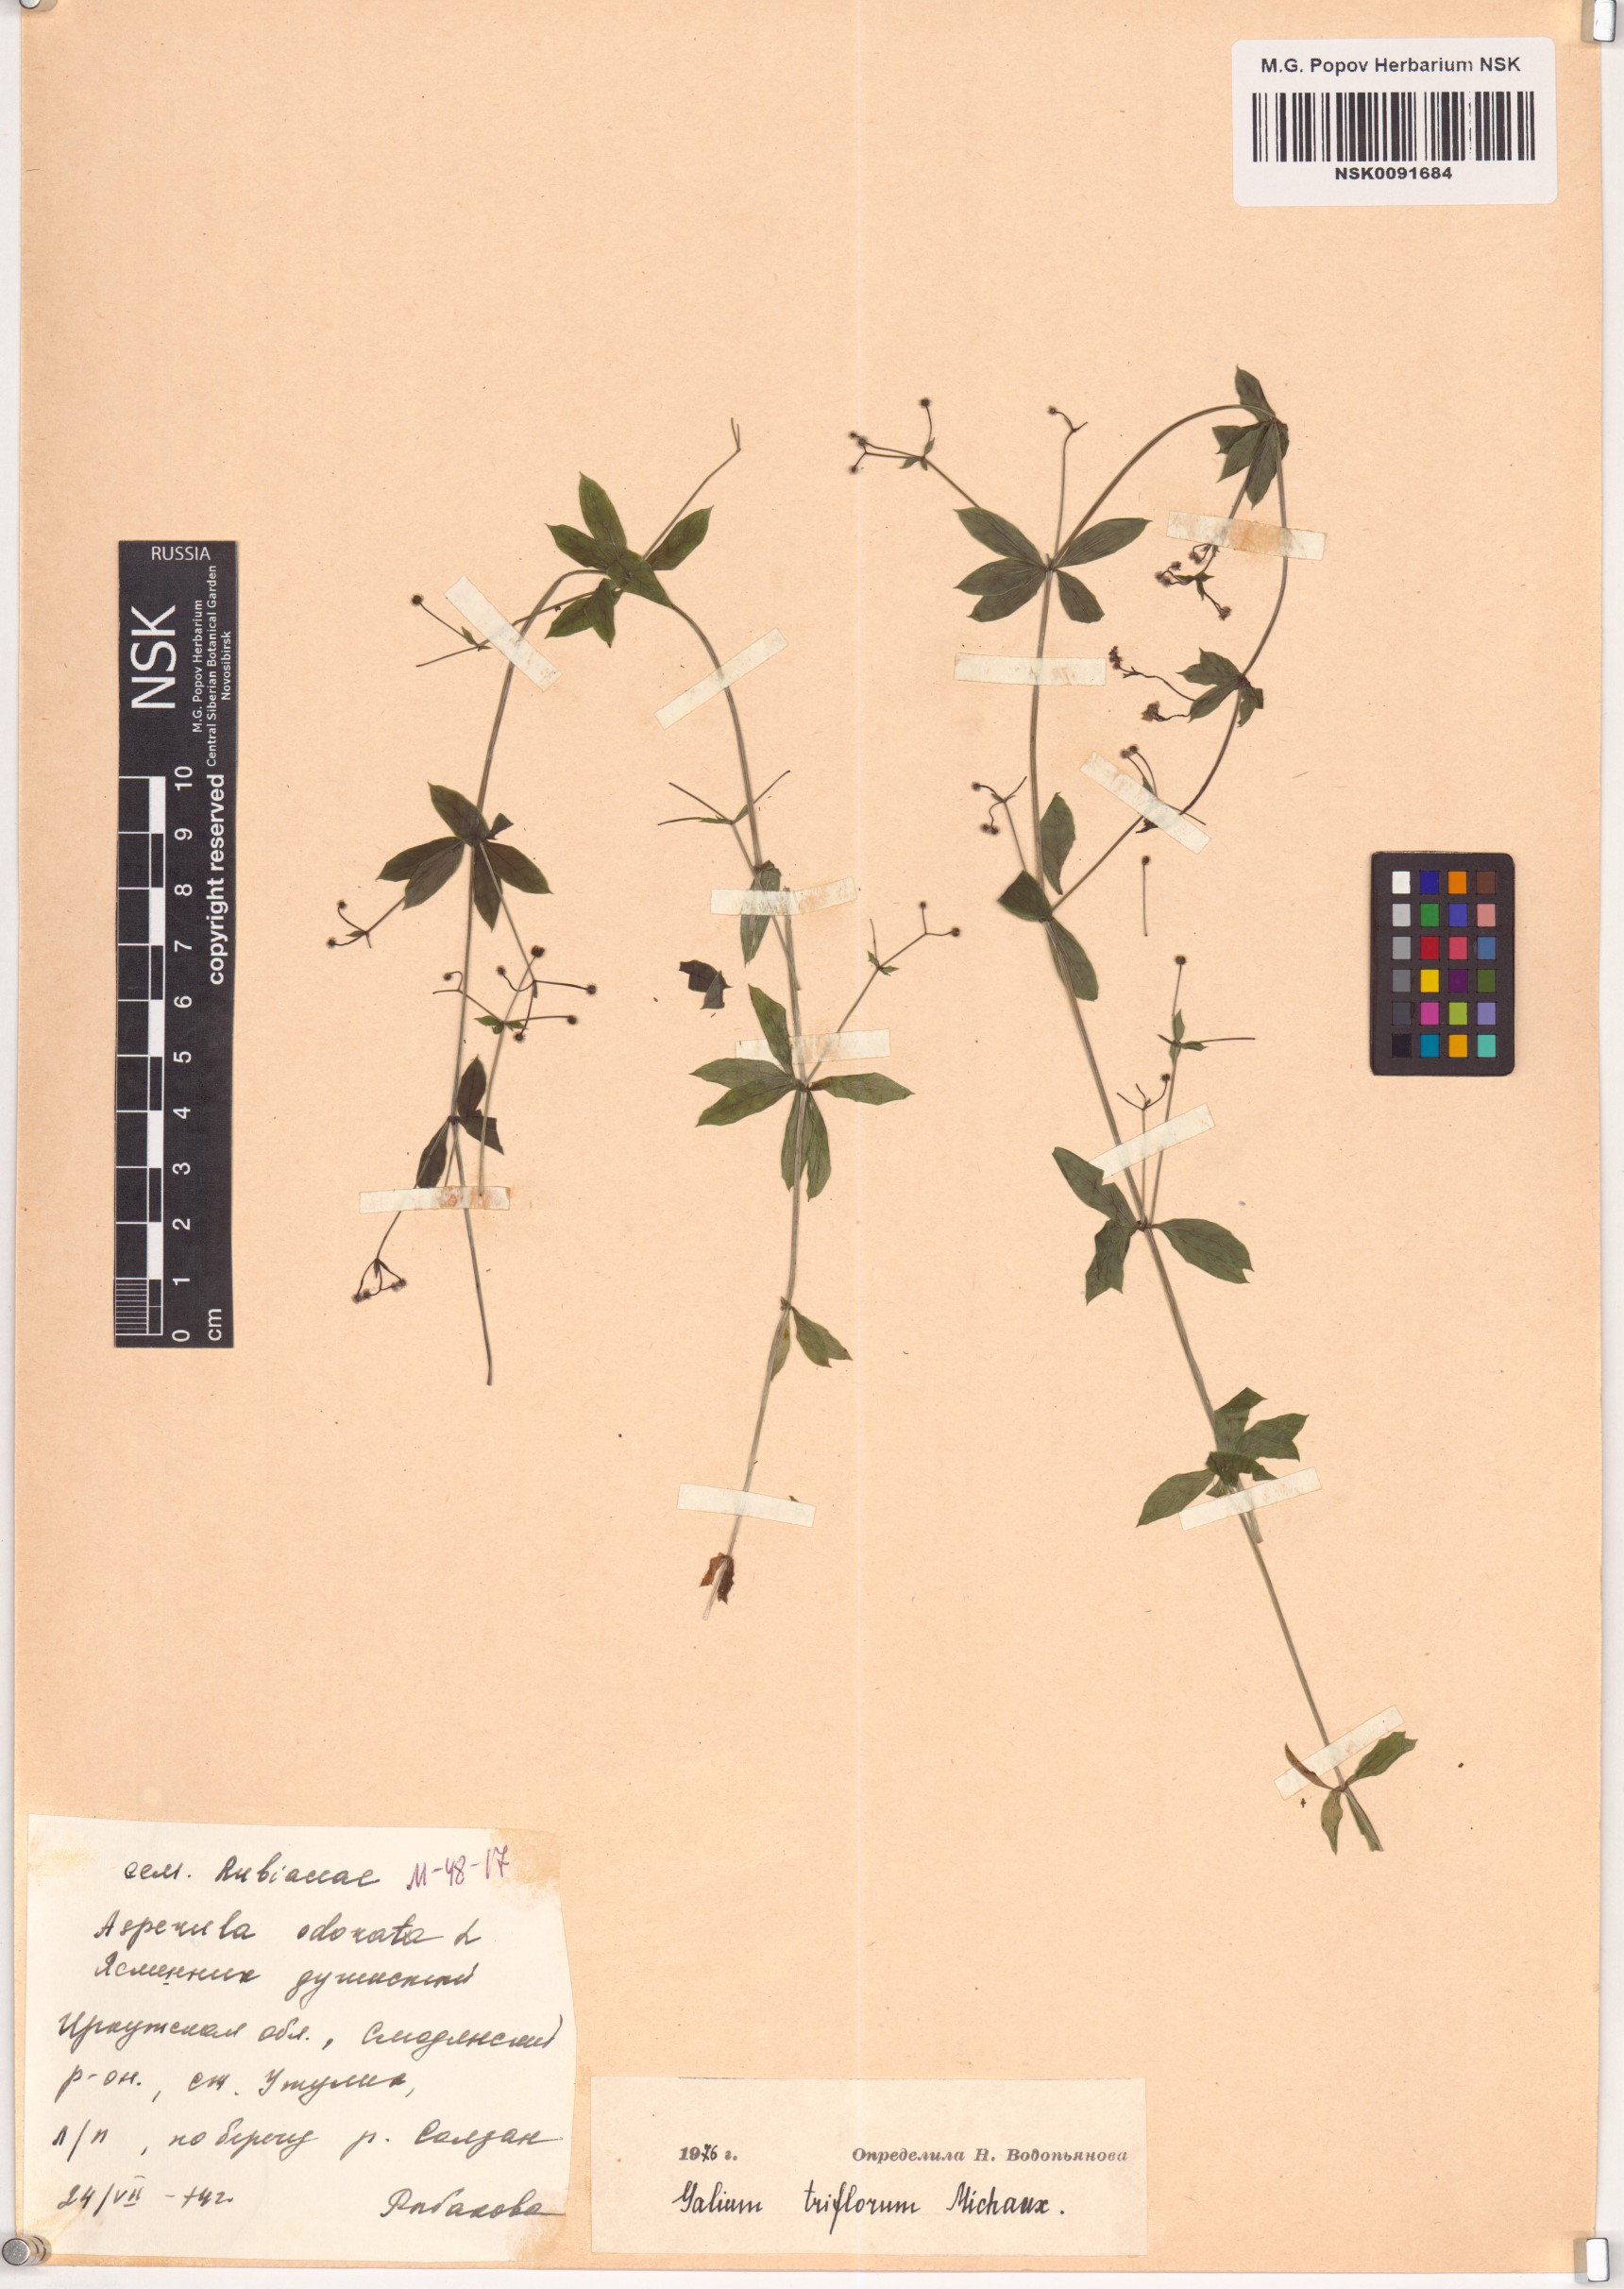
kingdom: Plantae
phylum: Tracheophyta
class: Magnoliopsida
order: Gentianales
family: Rubiaceae
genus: Galium
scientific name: Galium triflorum
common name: Fragrant bedstraw
